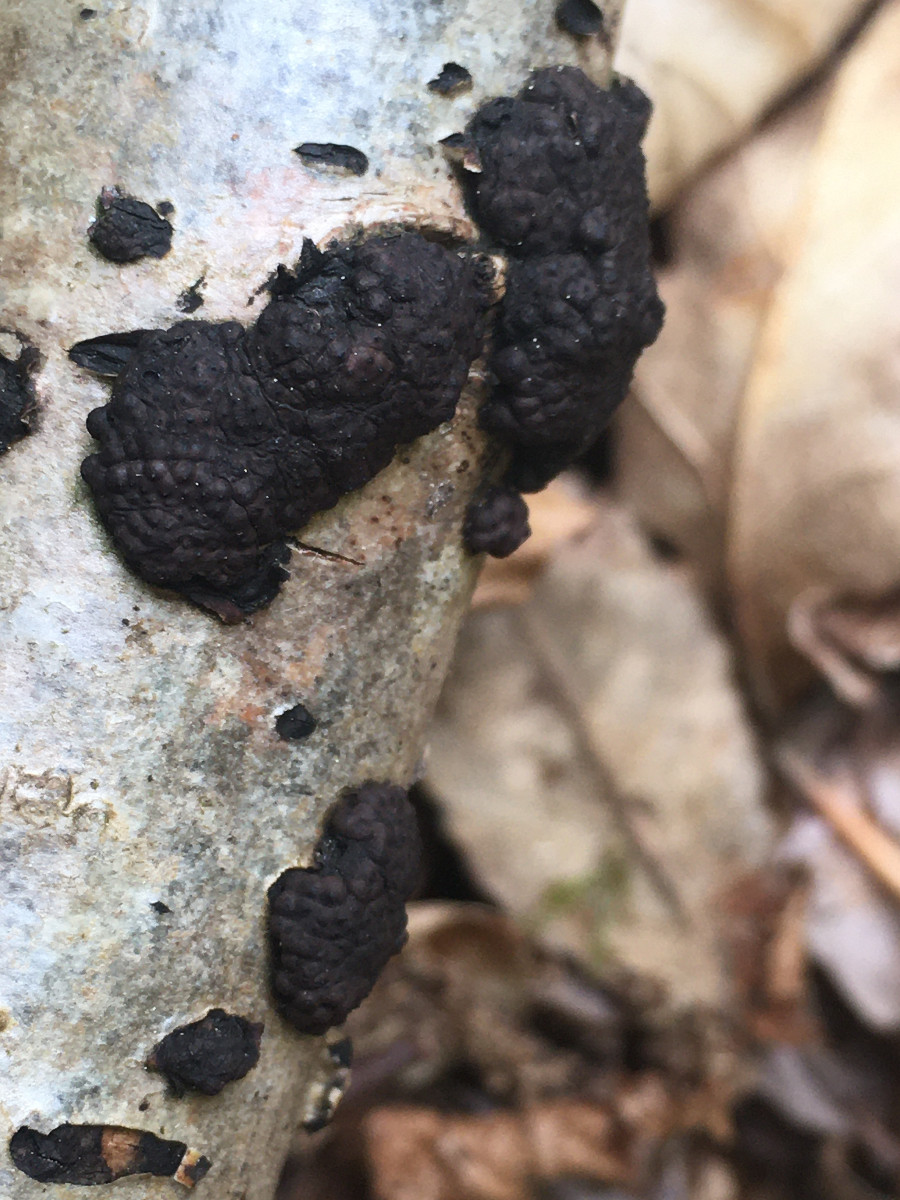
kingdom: Fungi
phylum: Ascomycota
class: Sordariomycetes
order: Xylariales
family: Hypoxylaceae
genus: Jackrogersella
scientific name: Jackrogersella multiformis
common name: foranderlig kulbær
